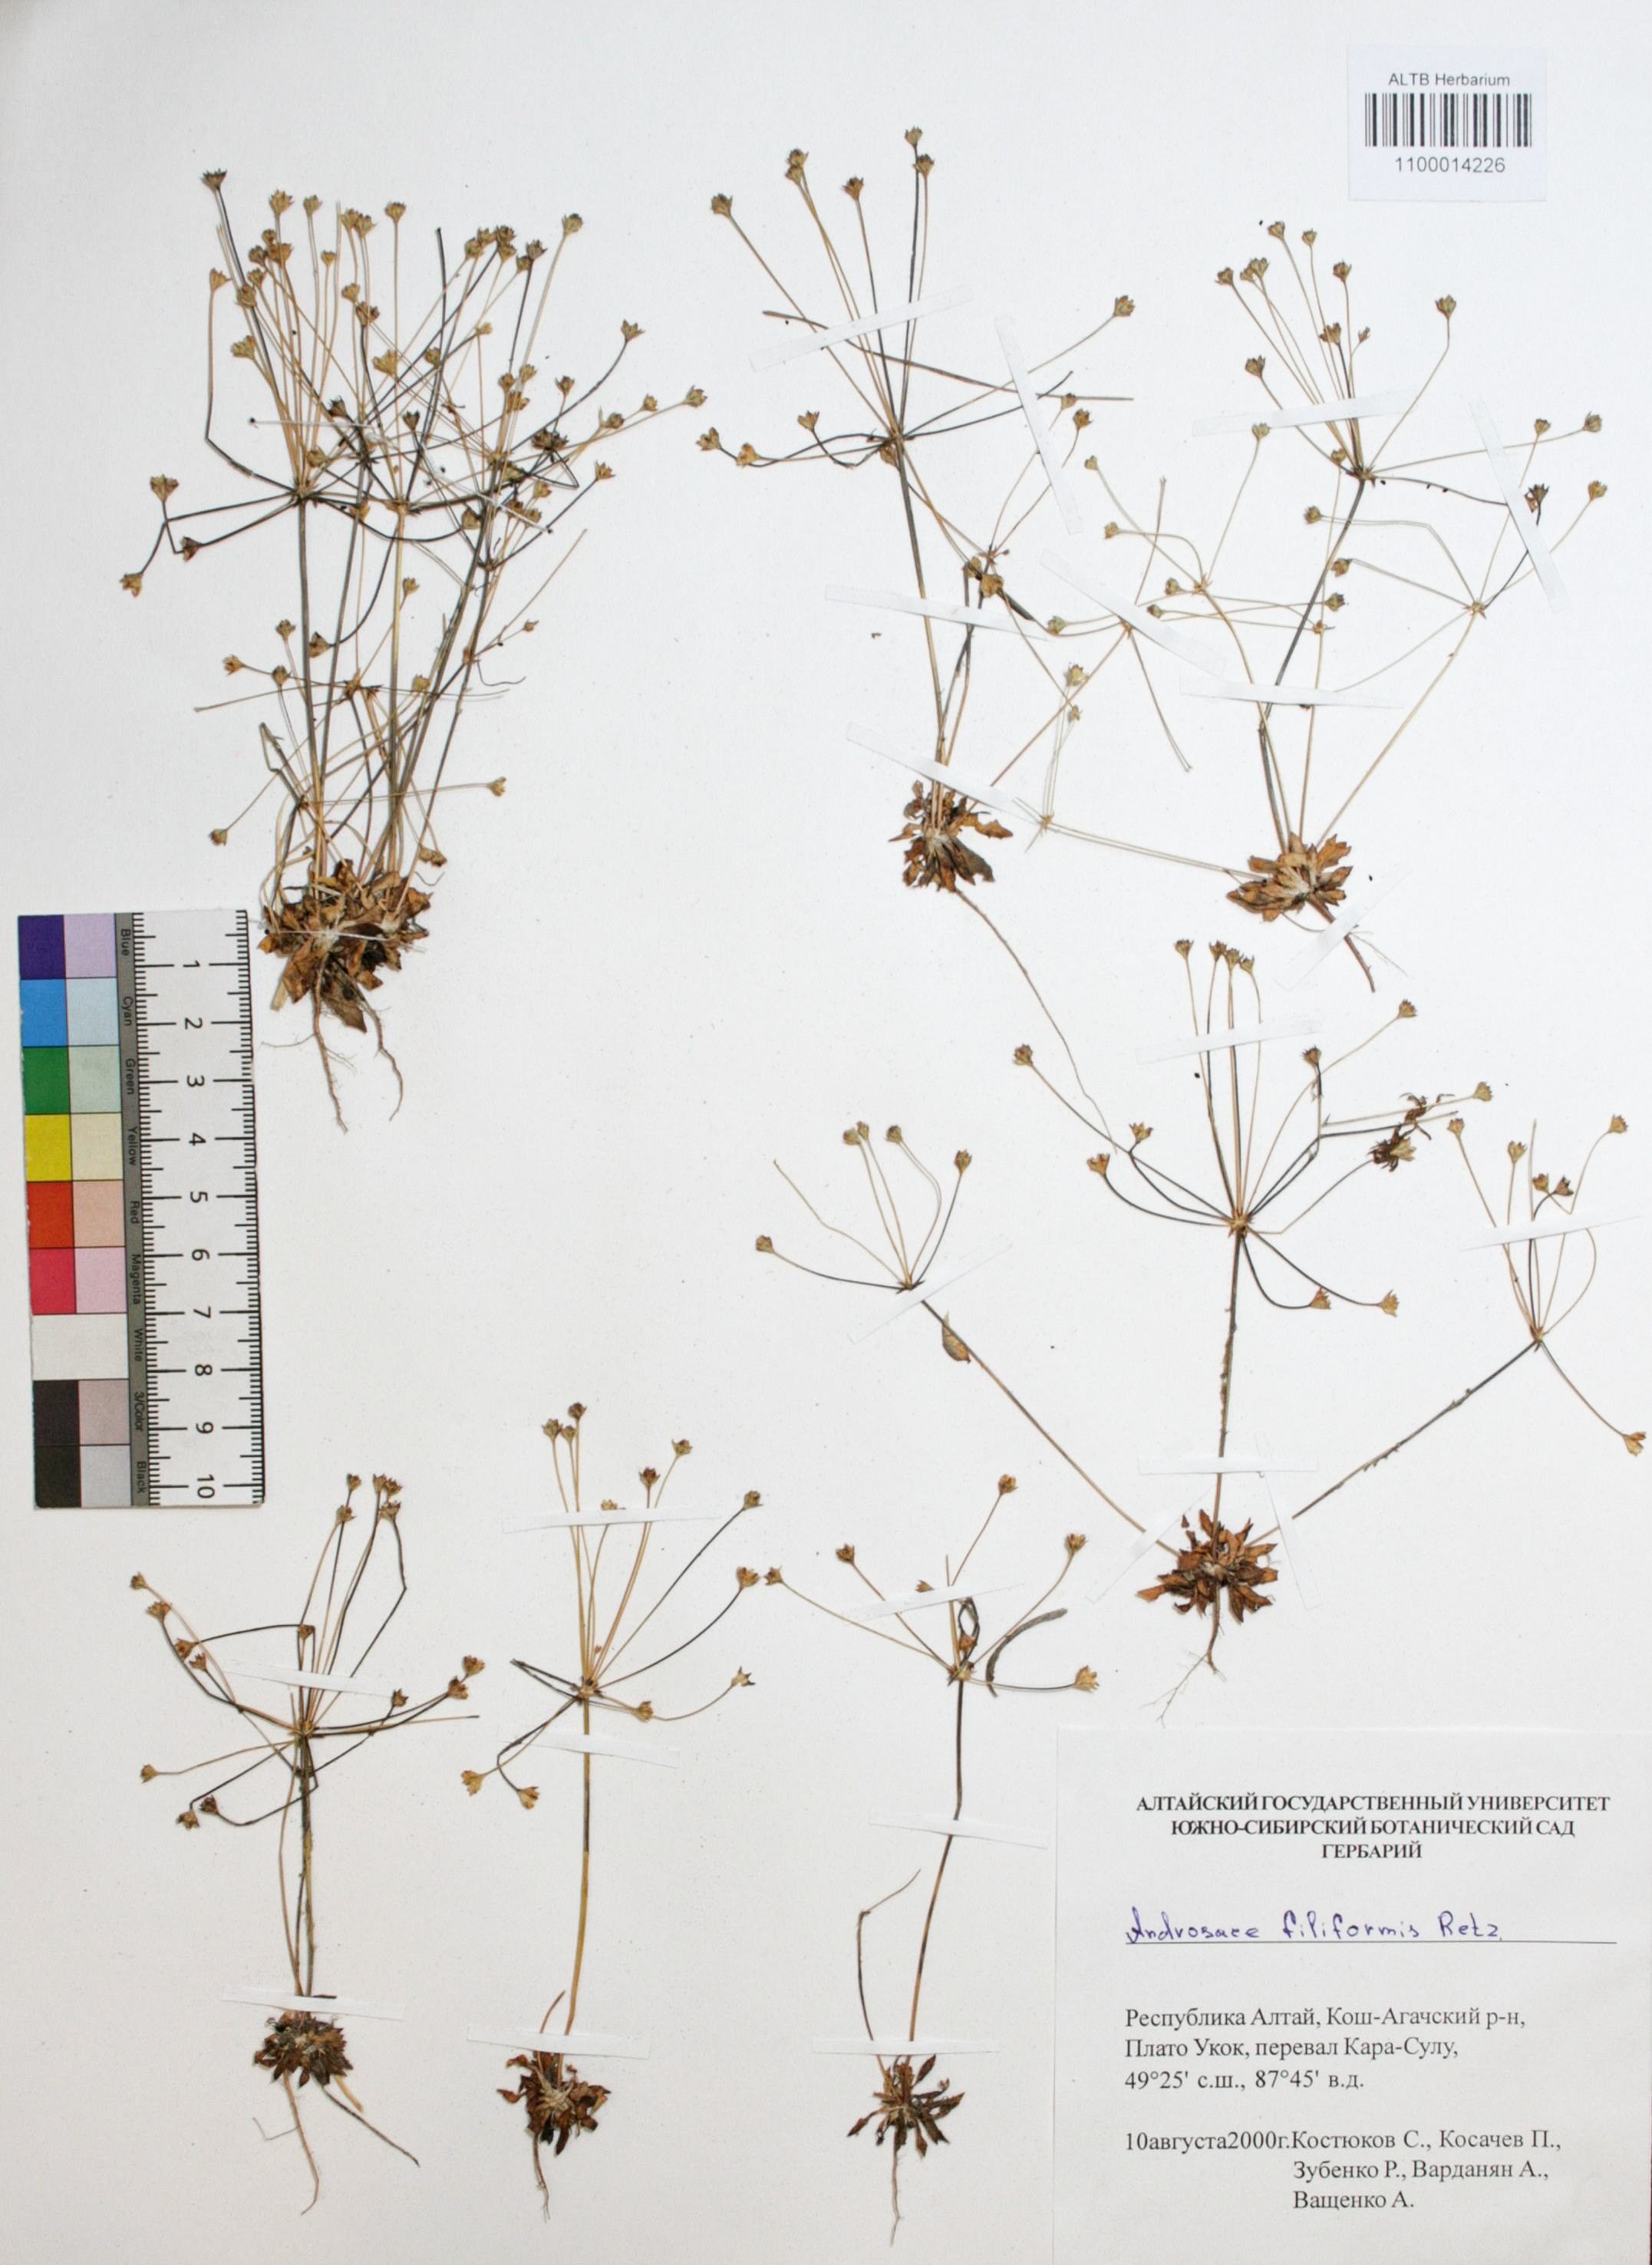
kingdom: Plantae
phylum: Tracheophyta
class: Magnoliopsida
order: Ericales
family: Primulaceae
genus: Androsace
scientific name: Androsace filiformis
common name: Filiform rock jasmine
